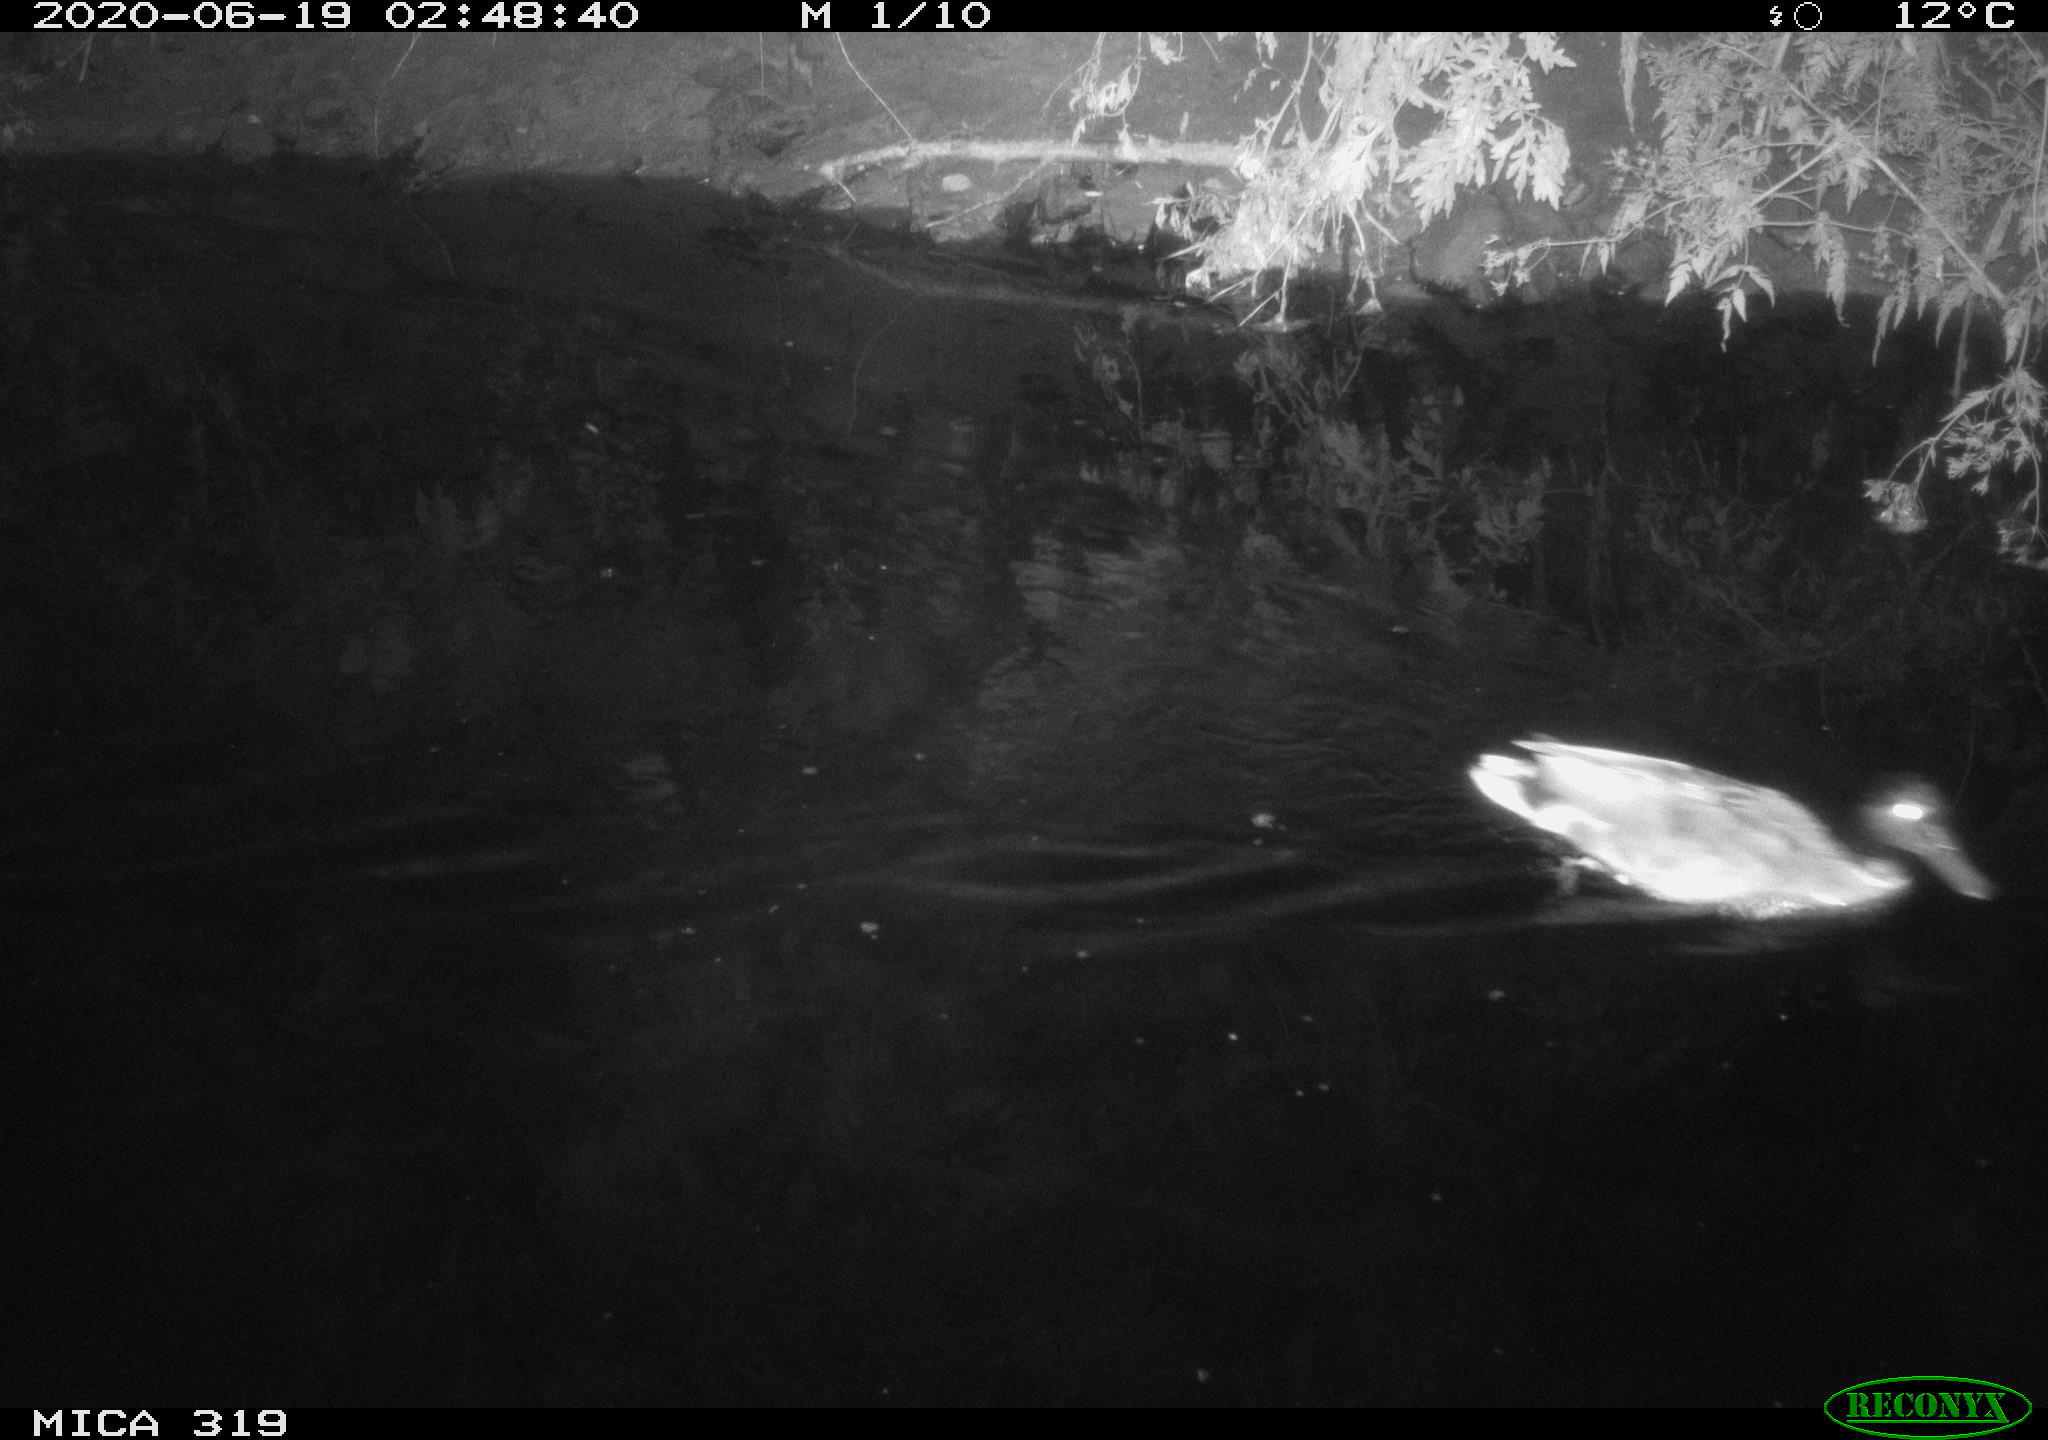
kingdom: Animalia
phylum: Chordata
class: Aves
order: Anseriformes
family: Anatidae
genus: Anas
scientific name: Anas platyrhynchos
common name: Mallard
